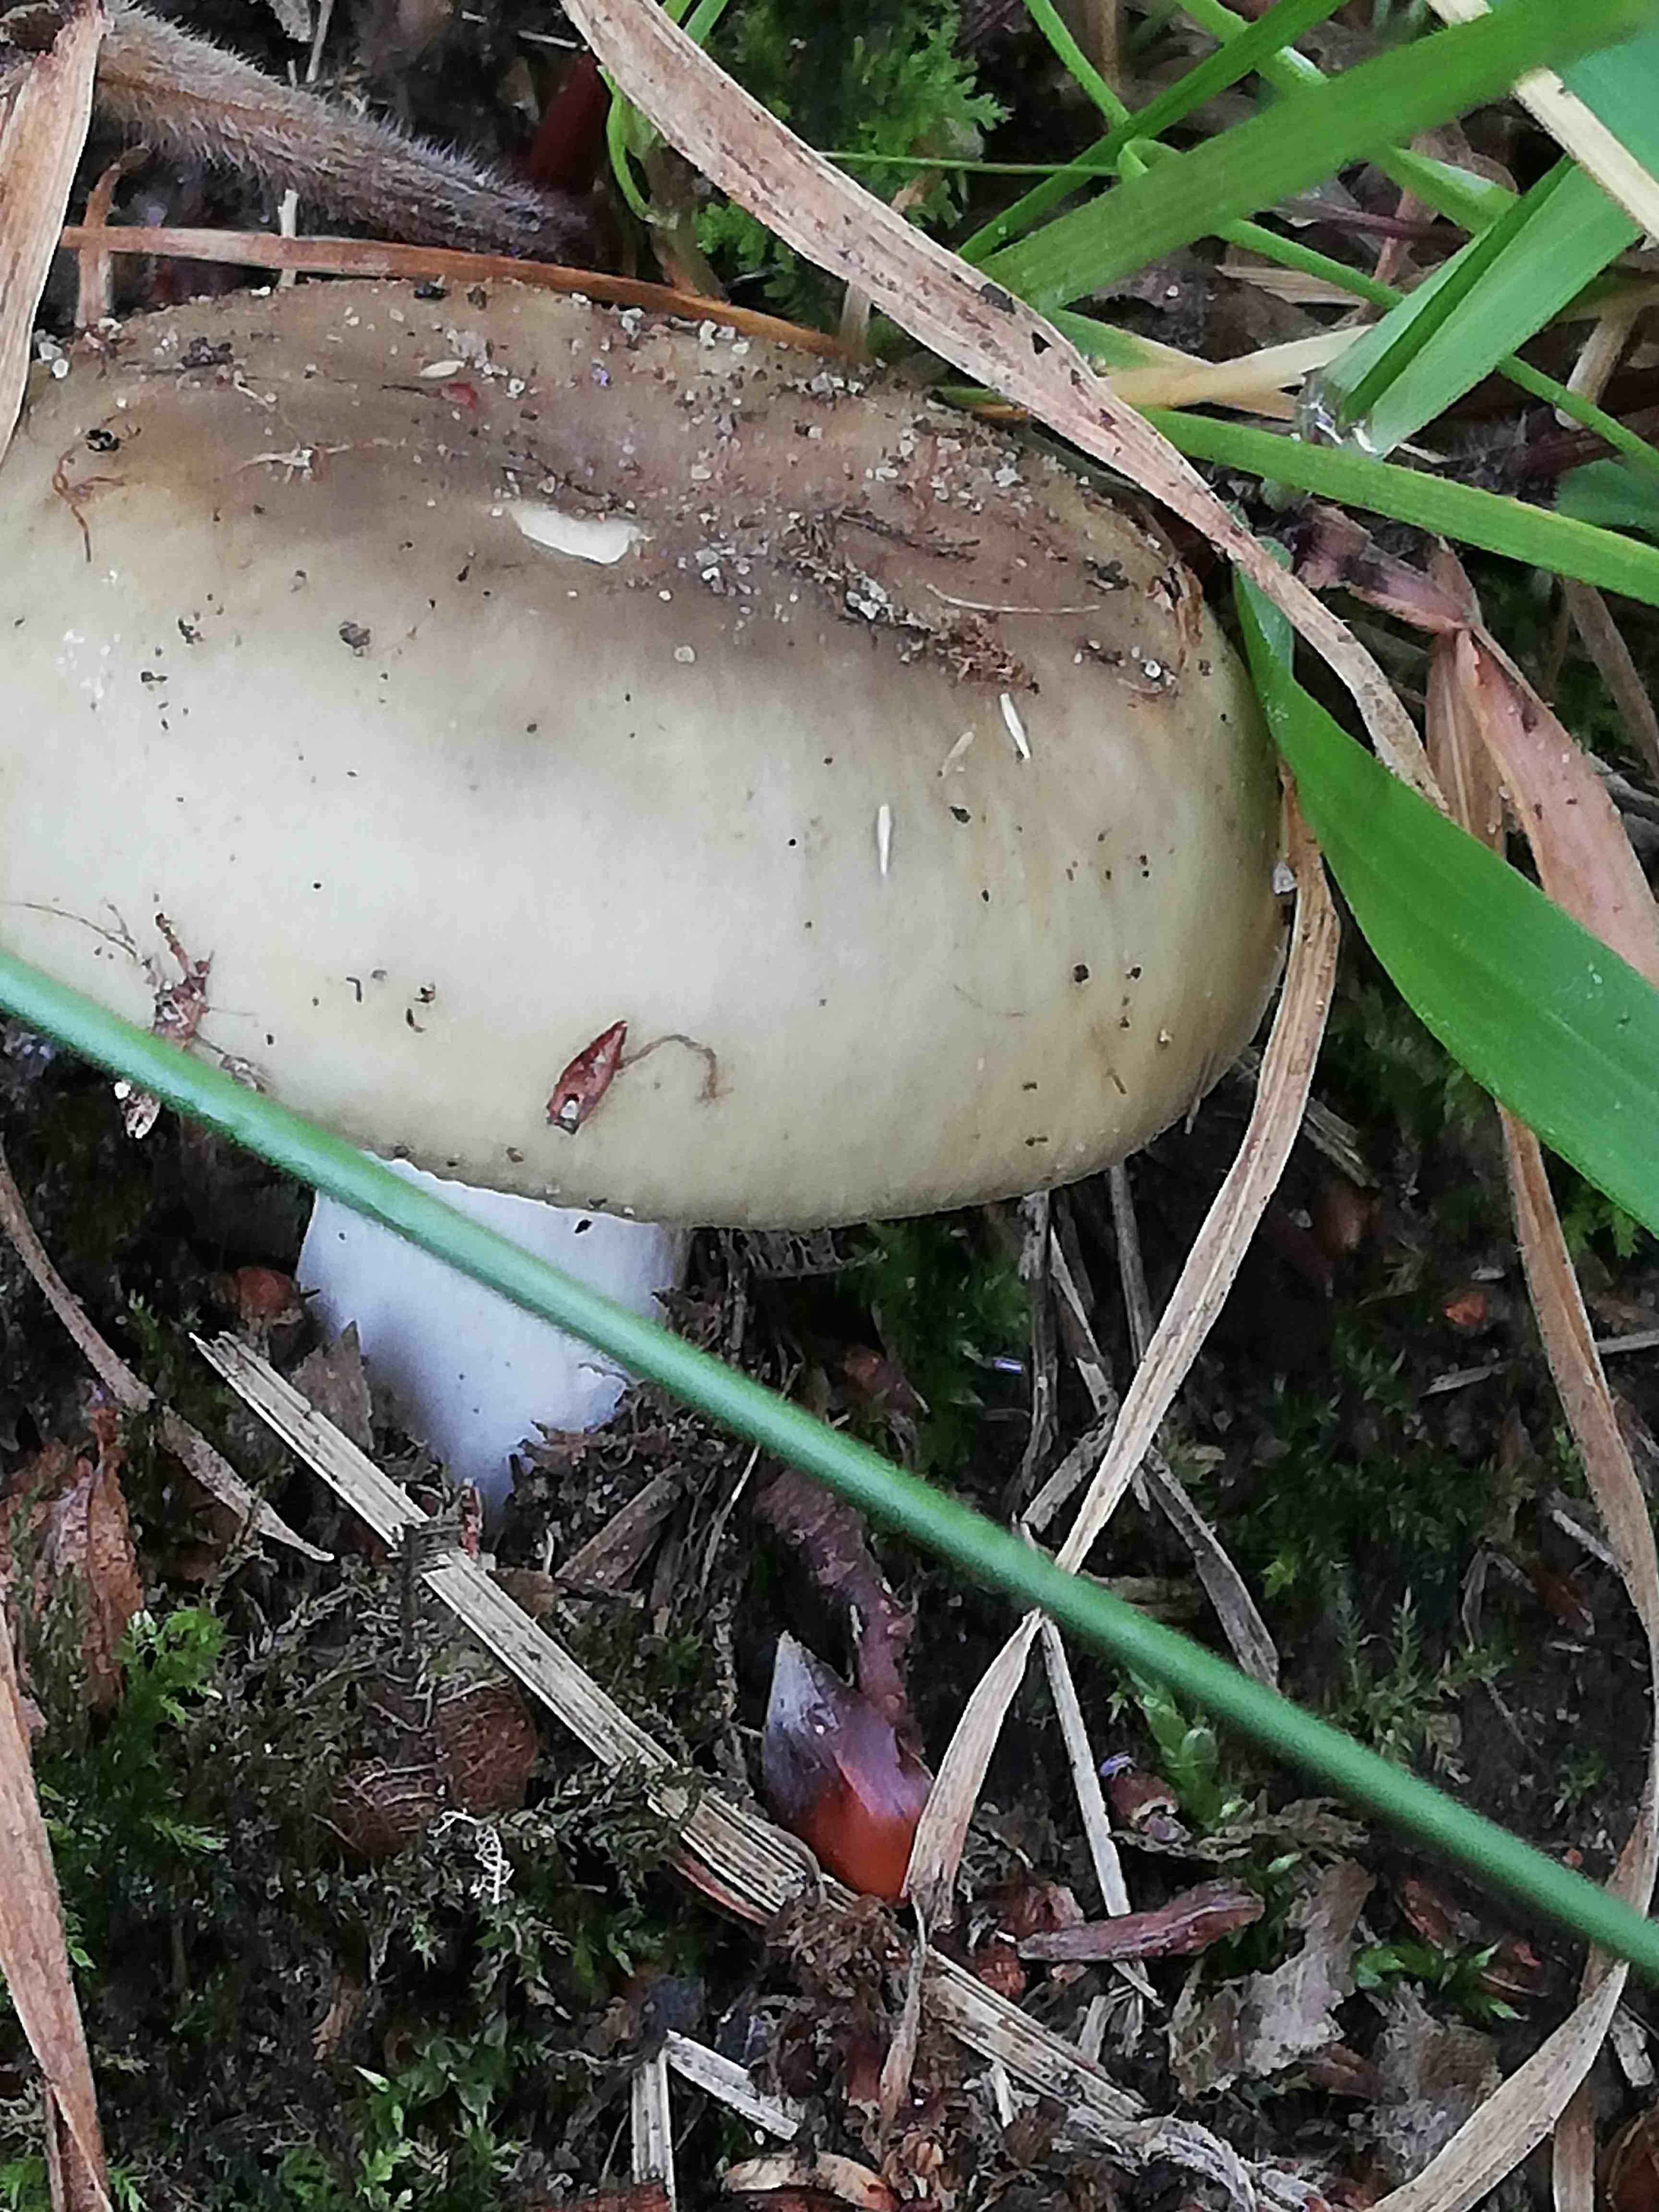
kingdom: Fungi
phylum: Basidiomycota
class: Agaricomycetes
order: Russulales
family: Russulaceae
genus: Russula
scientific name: Russula aeruginea
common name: græsgrøn skørhat
